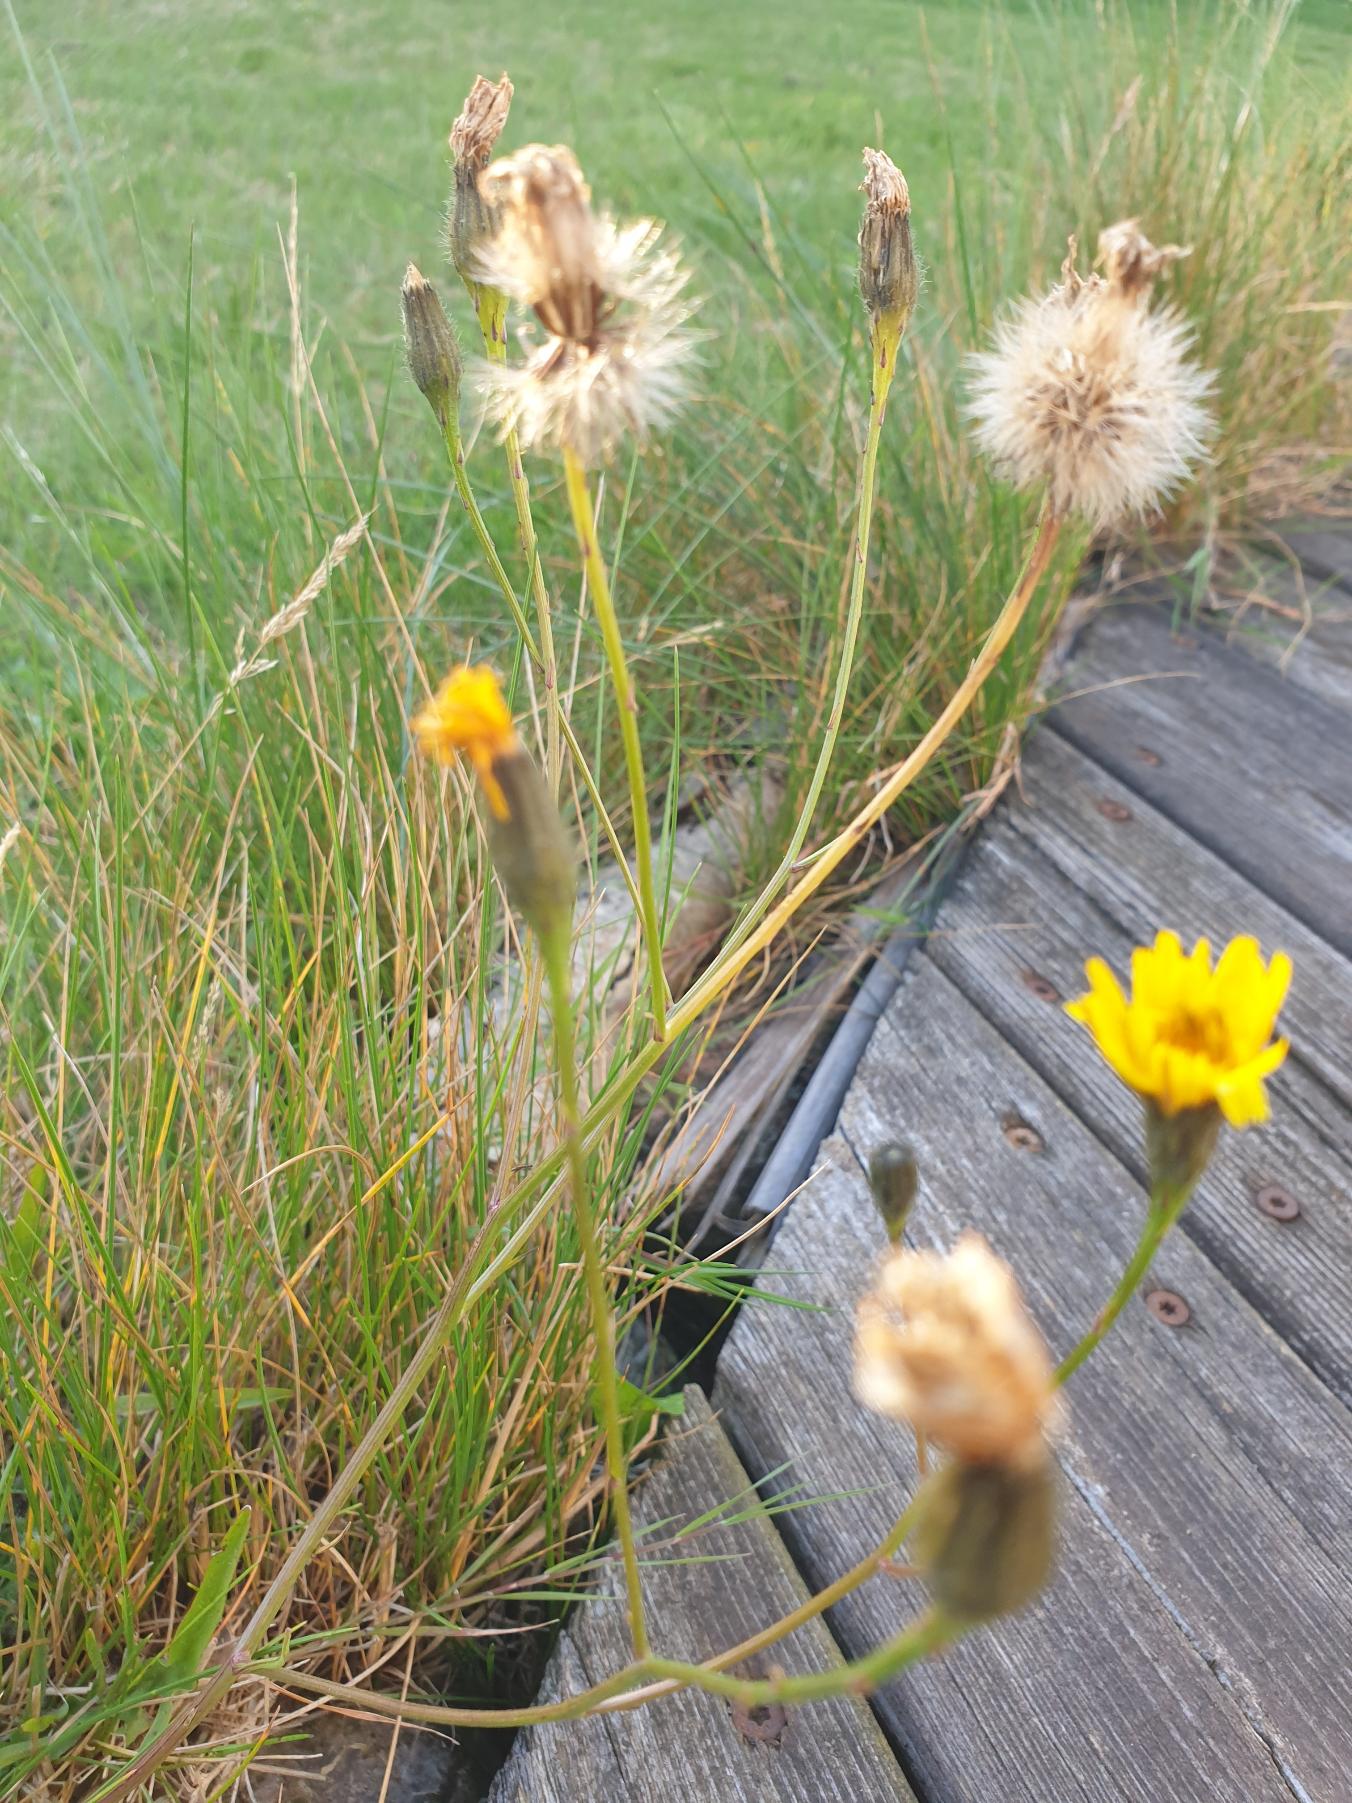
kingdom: Plantae
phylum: Tracheophyta
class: Magnoliopsida
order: Asterales
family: Asteraceae
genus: Scorzoneroides
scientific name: Scorzoneroides autumnalis
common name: Høst-borst
